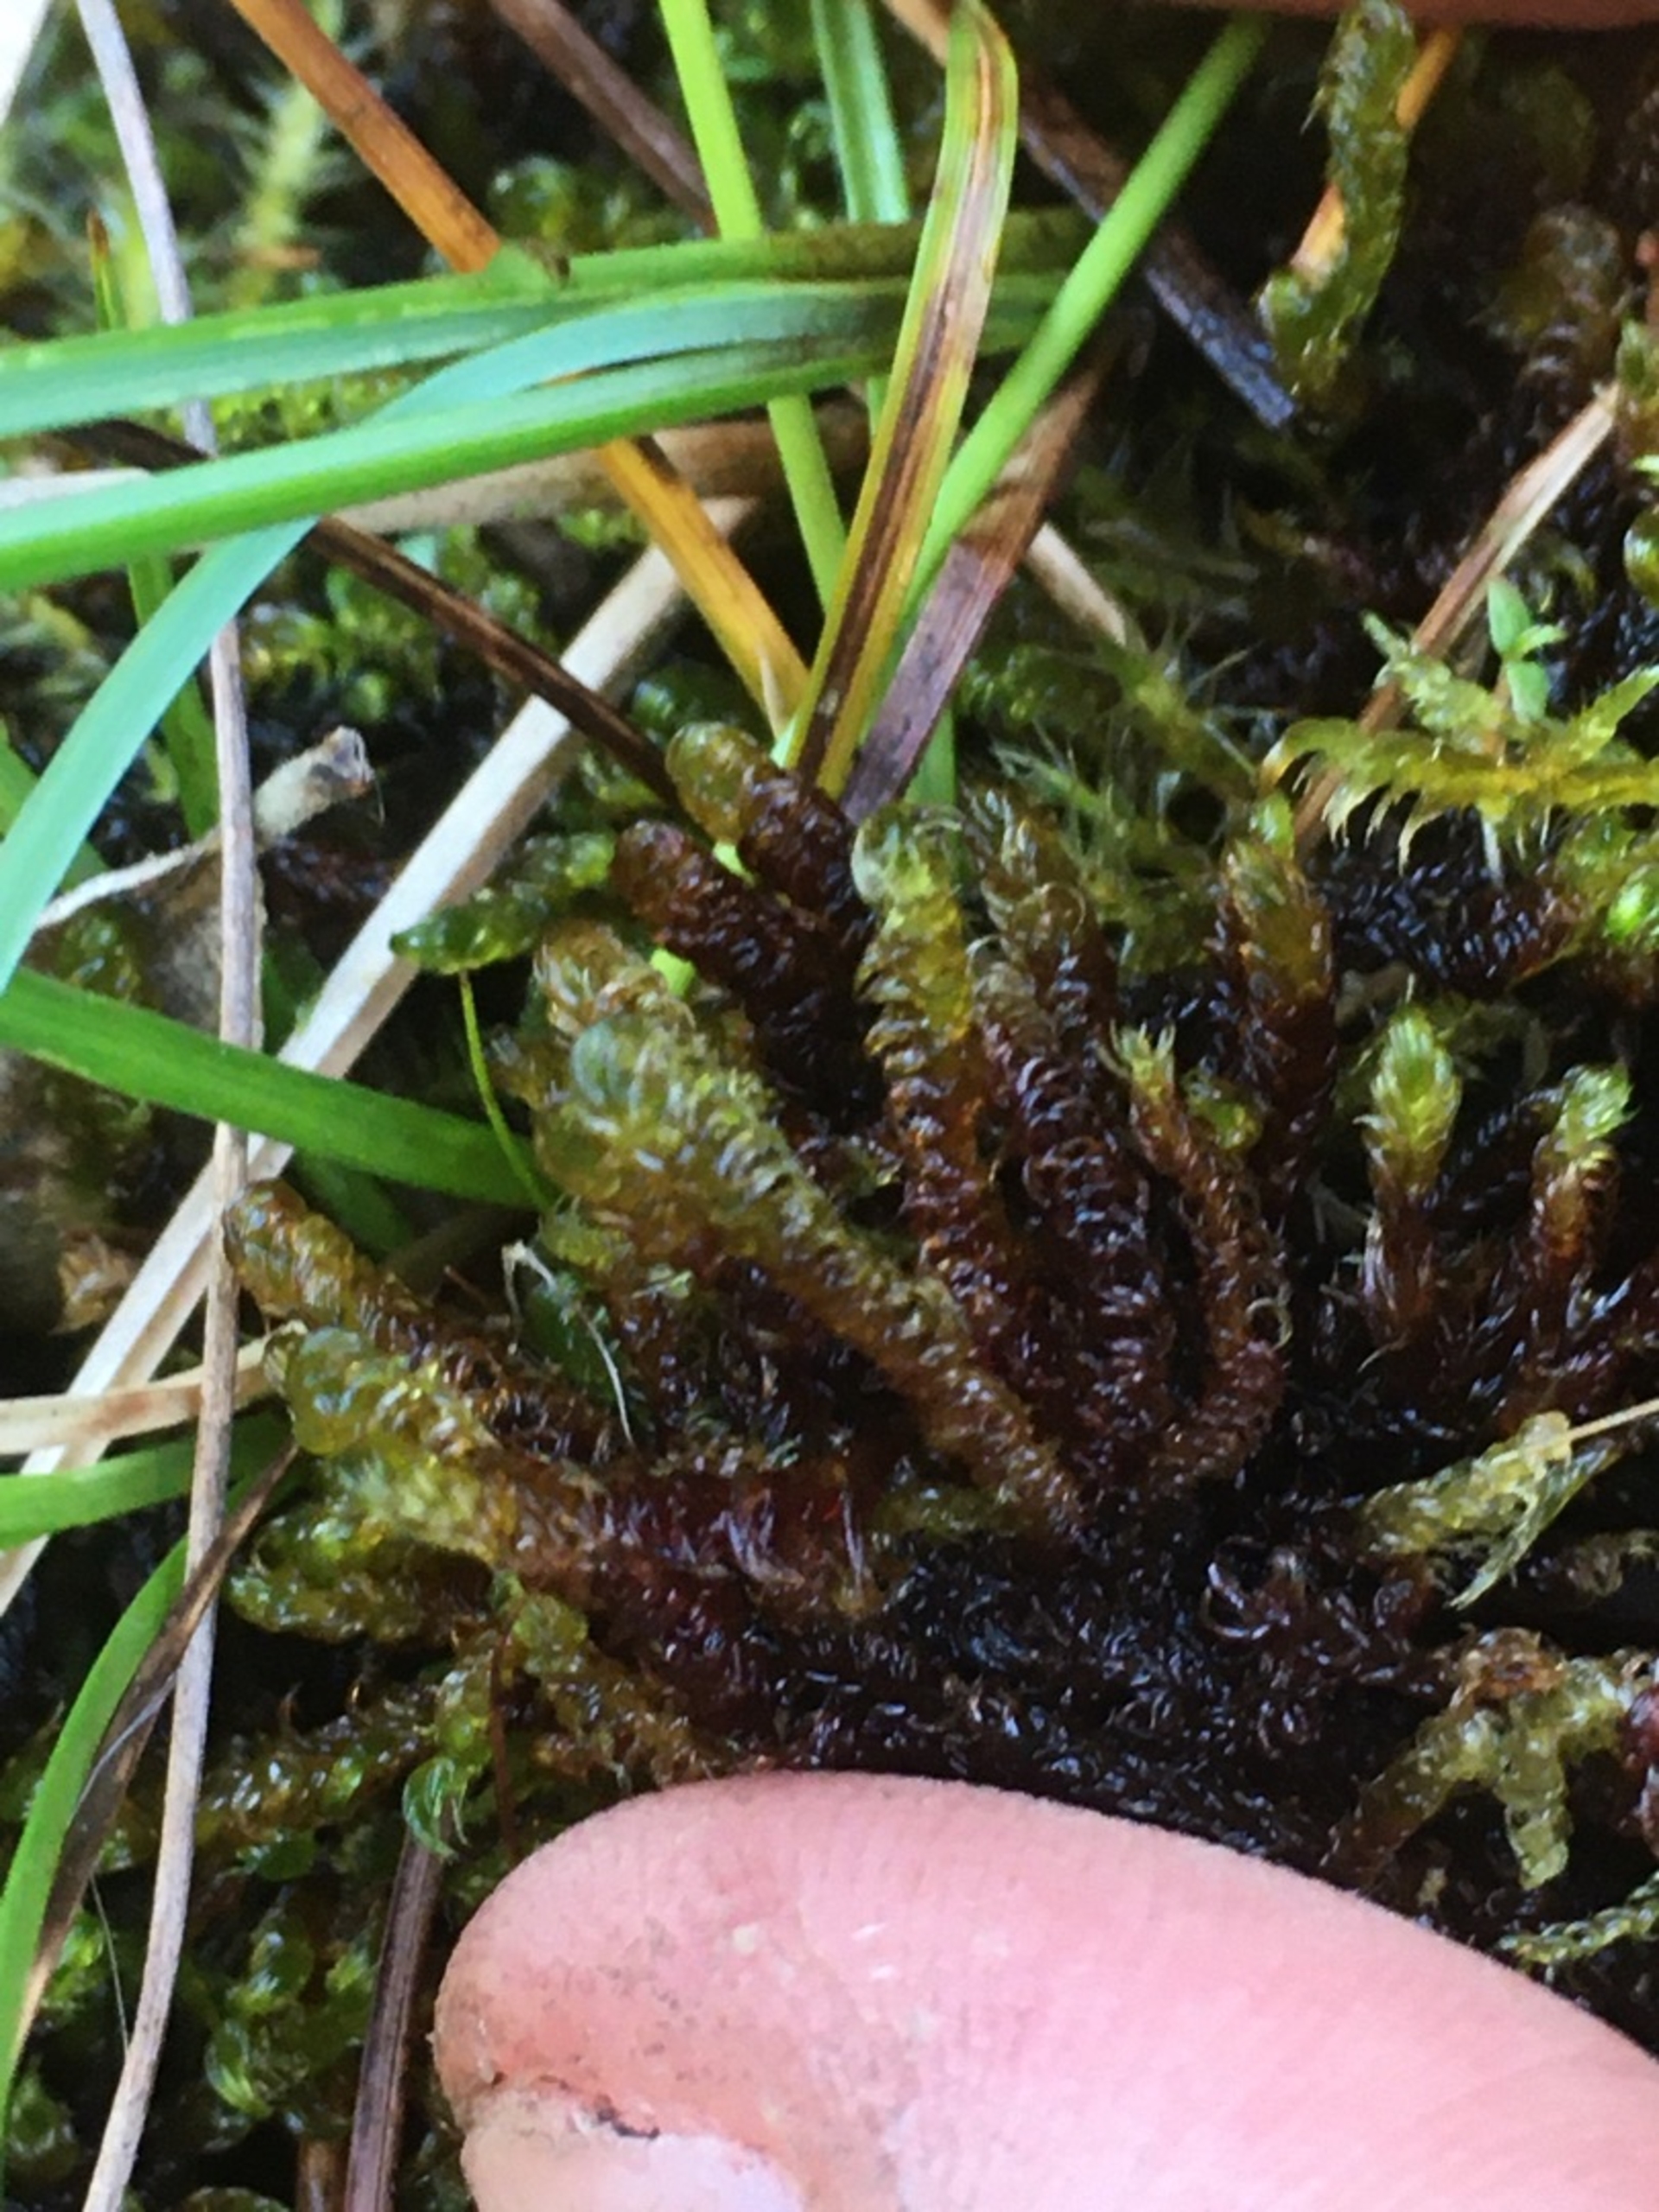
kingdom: Plantae
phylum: Bryophyta
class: Bryopsida
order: Hypnales
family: Scorpidiaceae
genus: Scorpidium
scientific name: Scorpidium revolvens
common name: Rød krumblad
